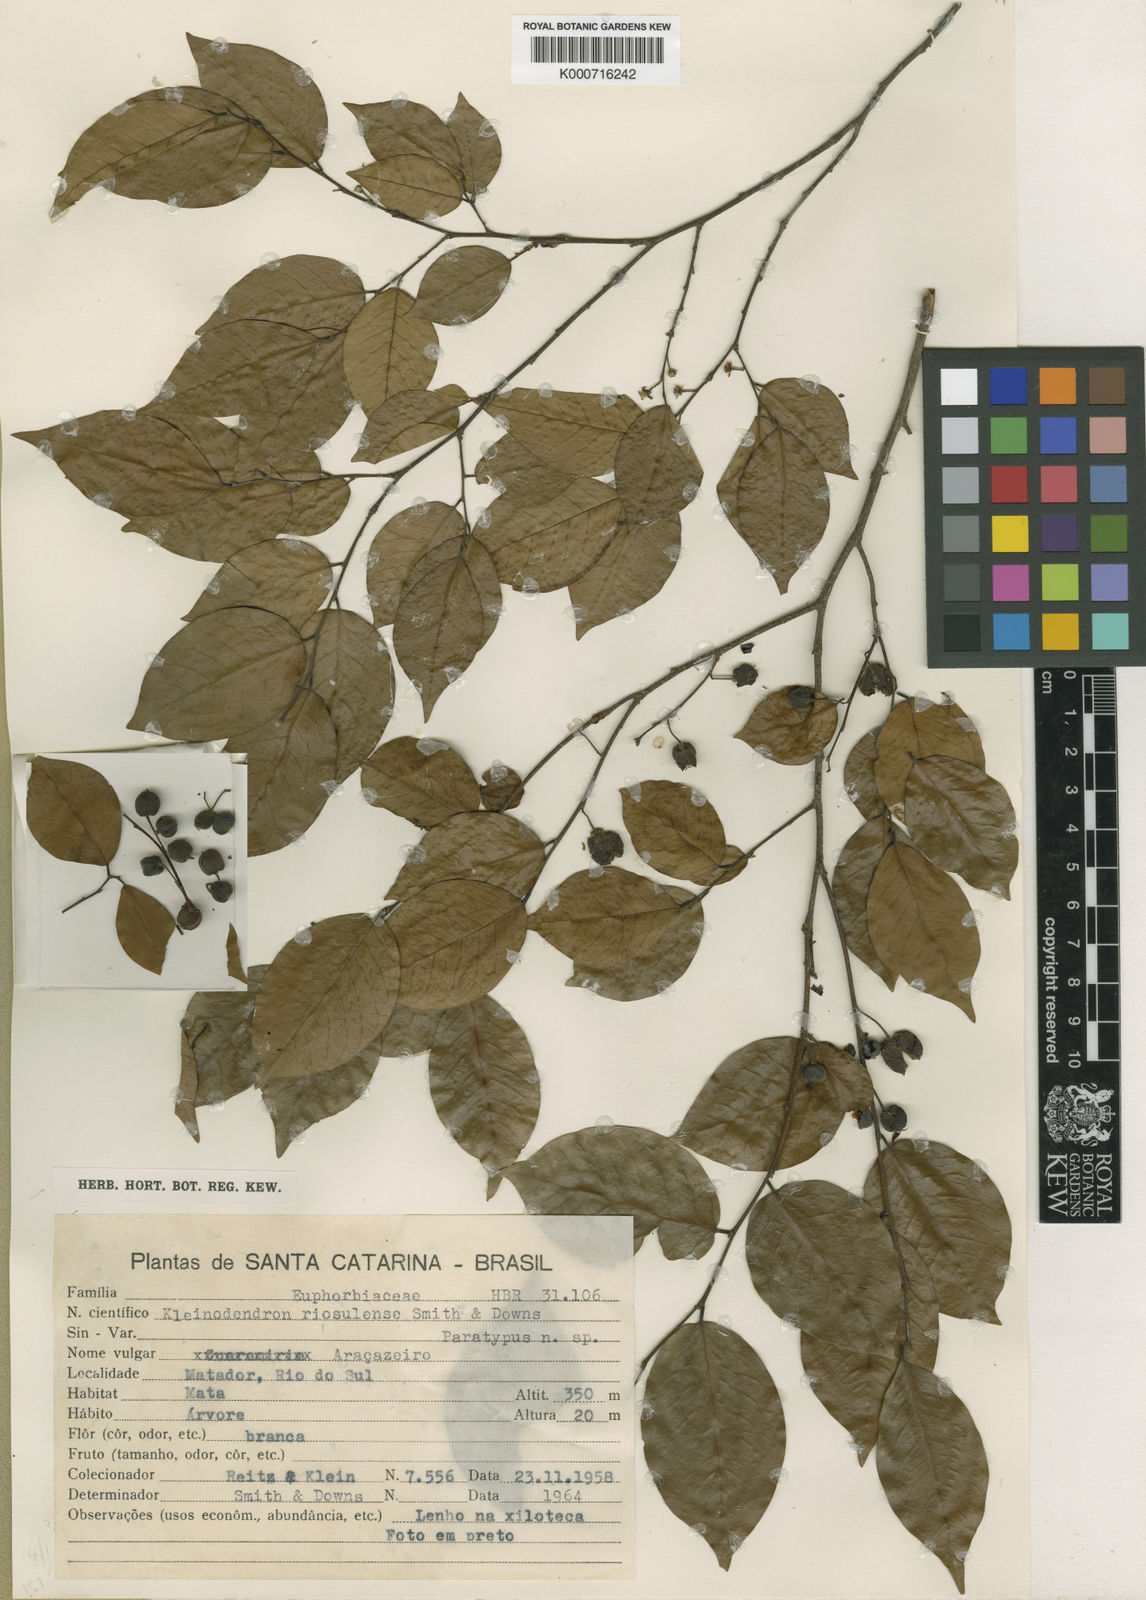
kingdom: Plantae
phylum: Tracheophyta
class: Magnoliopsida
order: Malpighiales
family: Phyllanthaceae
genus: Savia
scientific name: Savia
